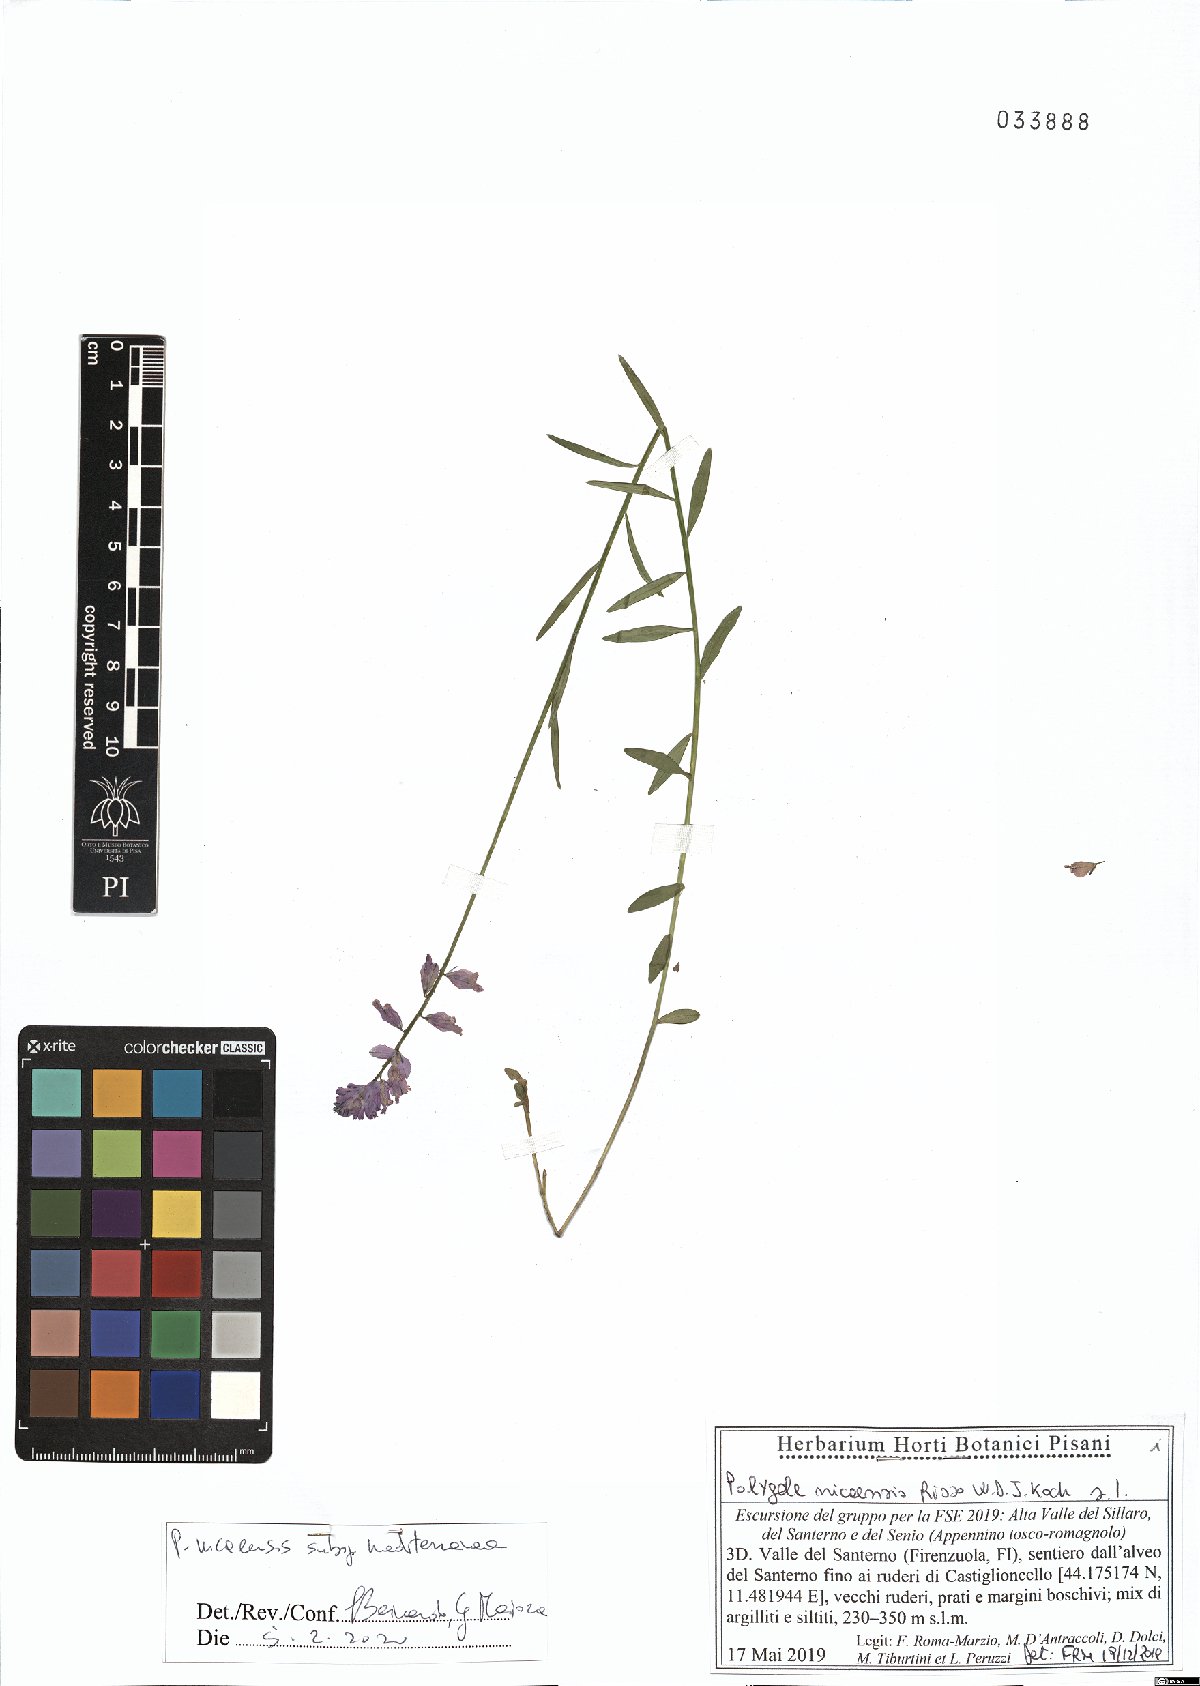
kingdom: Plantae
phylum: Tracheophyta
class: Magnoliopsida
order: Fabales
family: Polygalaceae
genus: Polygala
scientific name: Polygala nicaeensis
